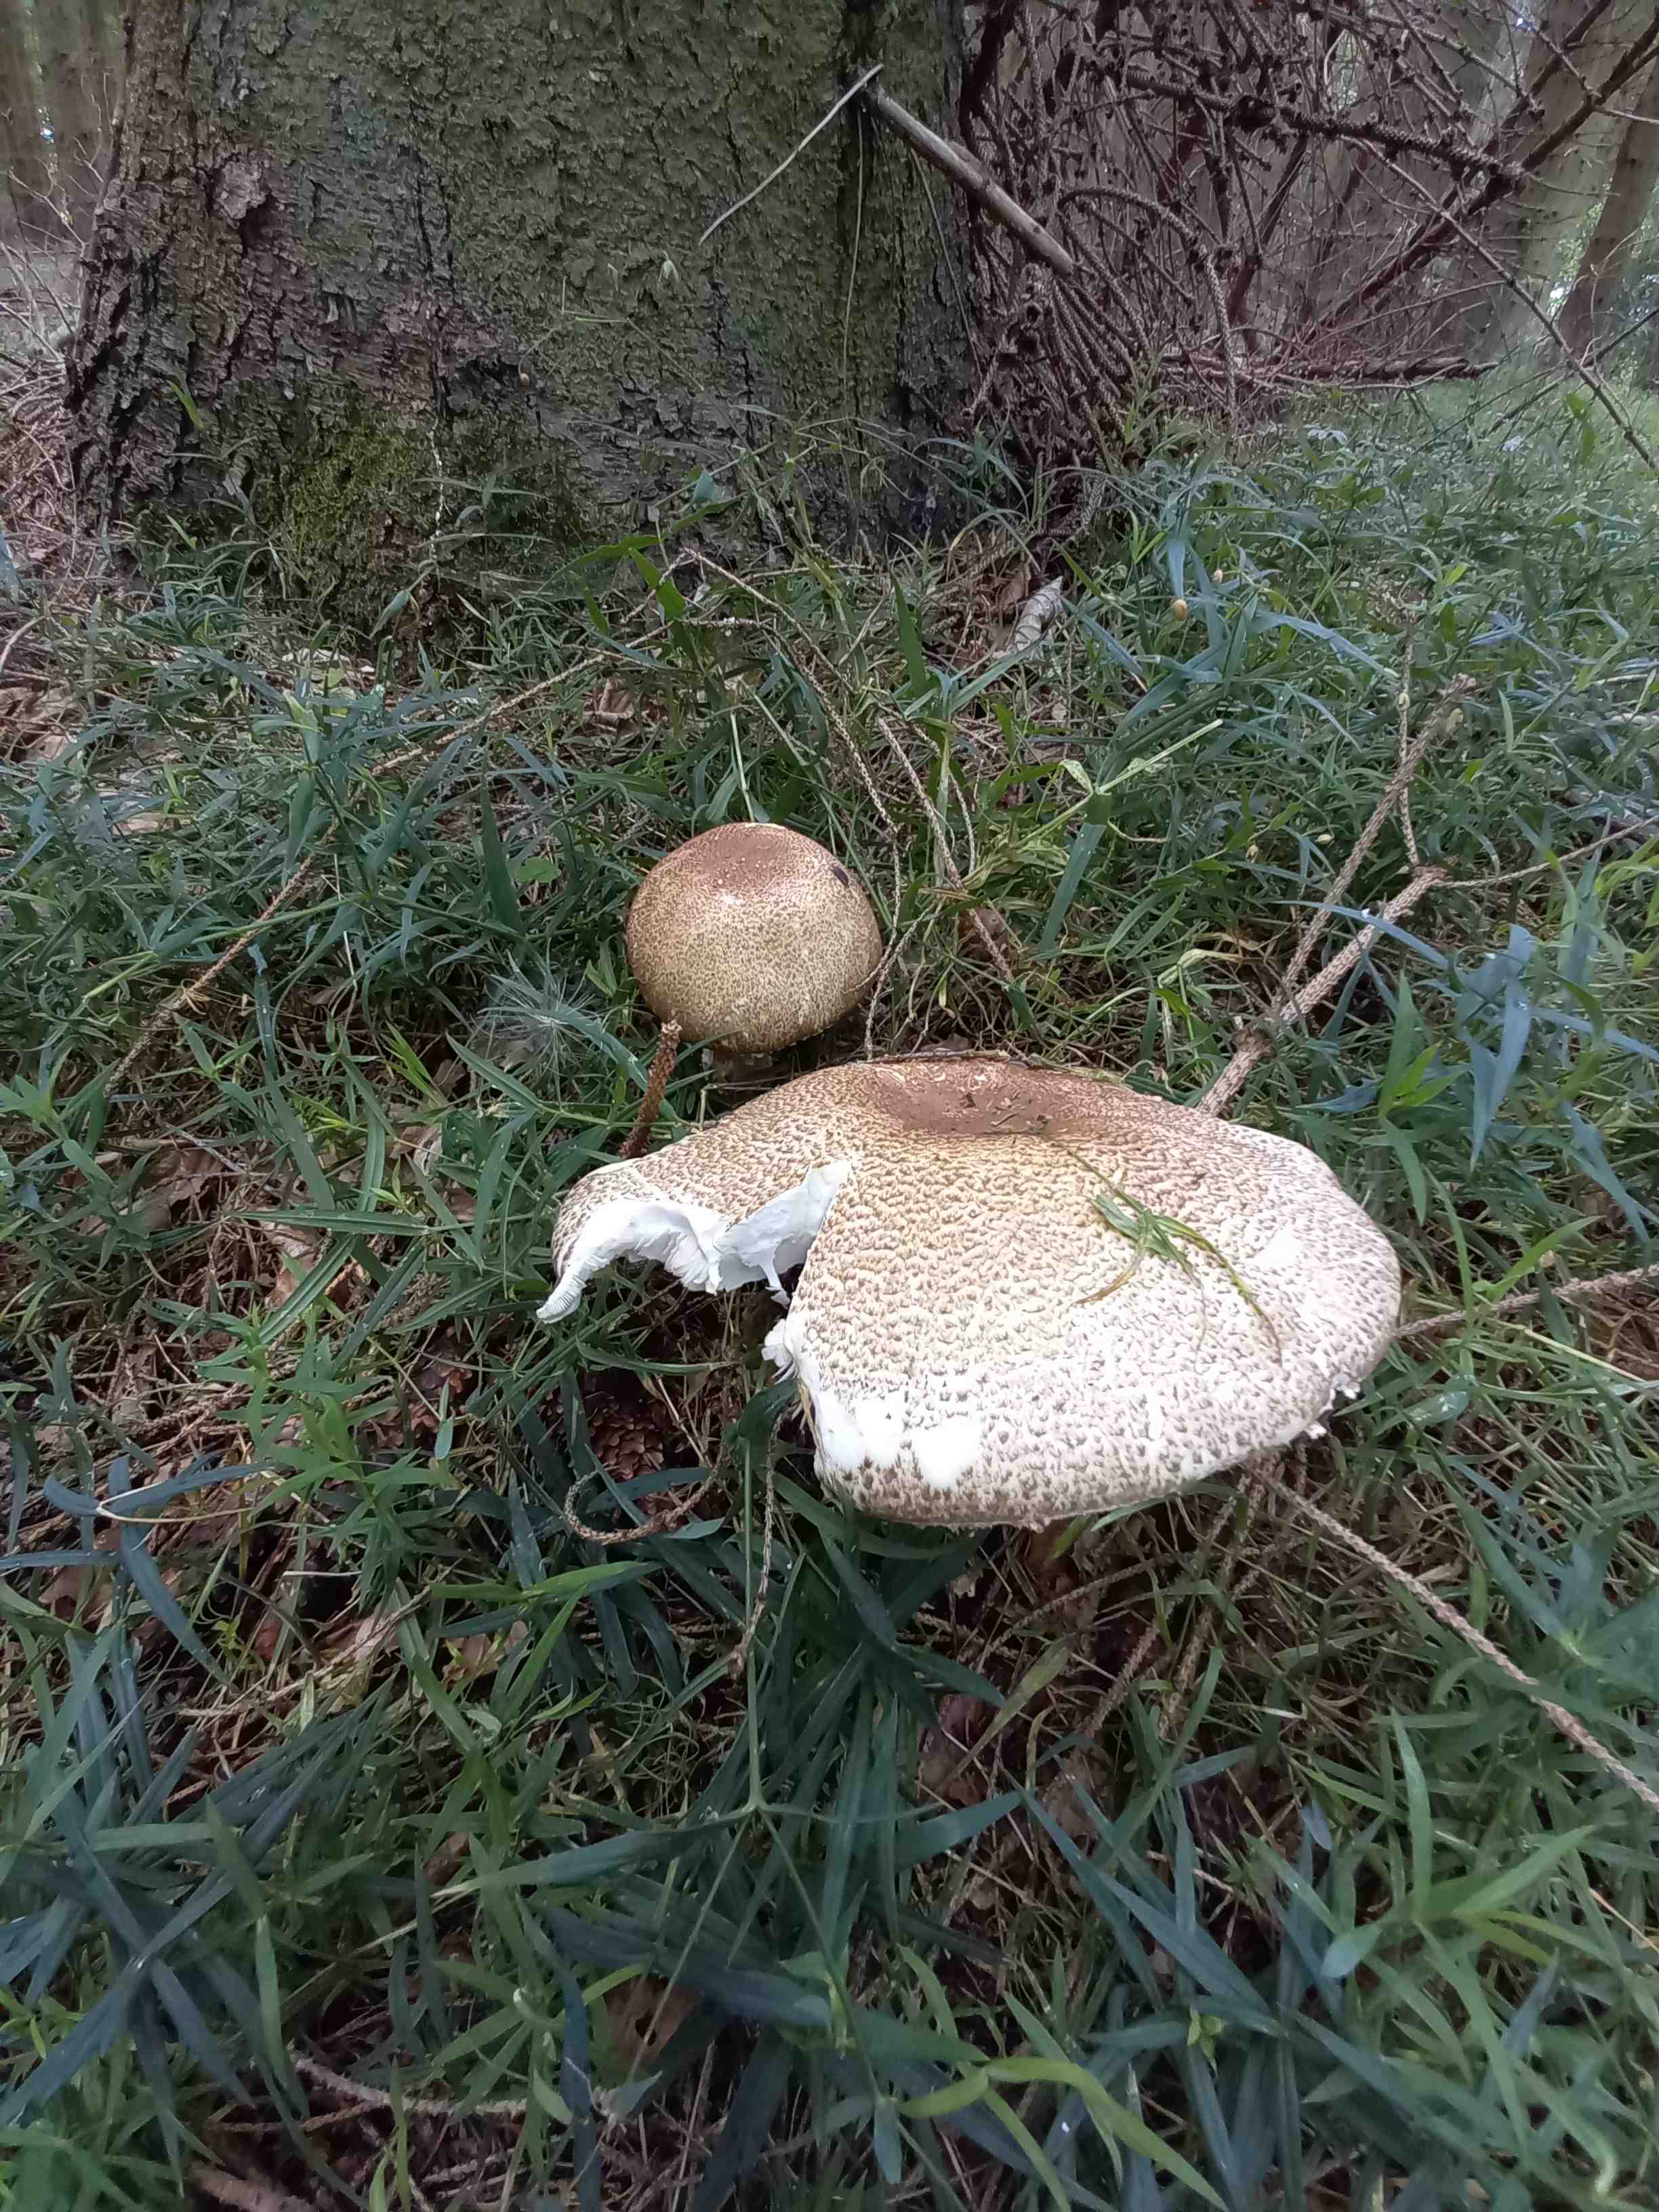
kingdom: Fungi
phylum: Basidiomycota
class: Agaricomycetes
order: Agaricales
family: Agaricaceae
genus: Agaricus
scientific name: Agaricus augustus
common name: prægtig champignon
